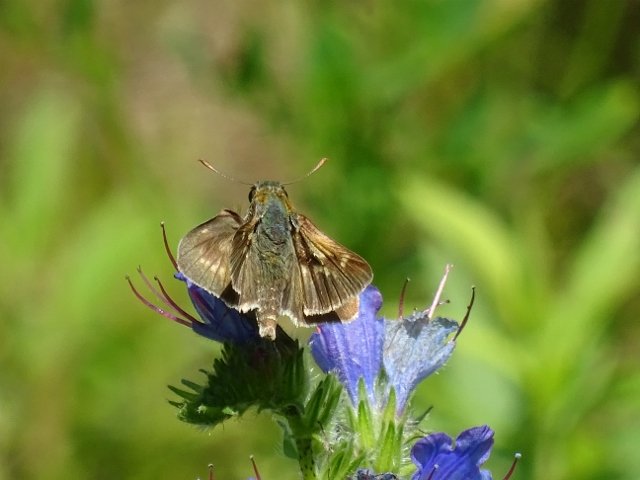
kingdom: Animalia
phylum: Arthropoda
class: Insecta
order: Lepidoptera
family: Hesperiidae
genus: Polites
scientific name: Polites
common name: Long Dash Skipper
